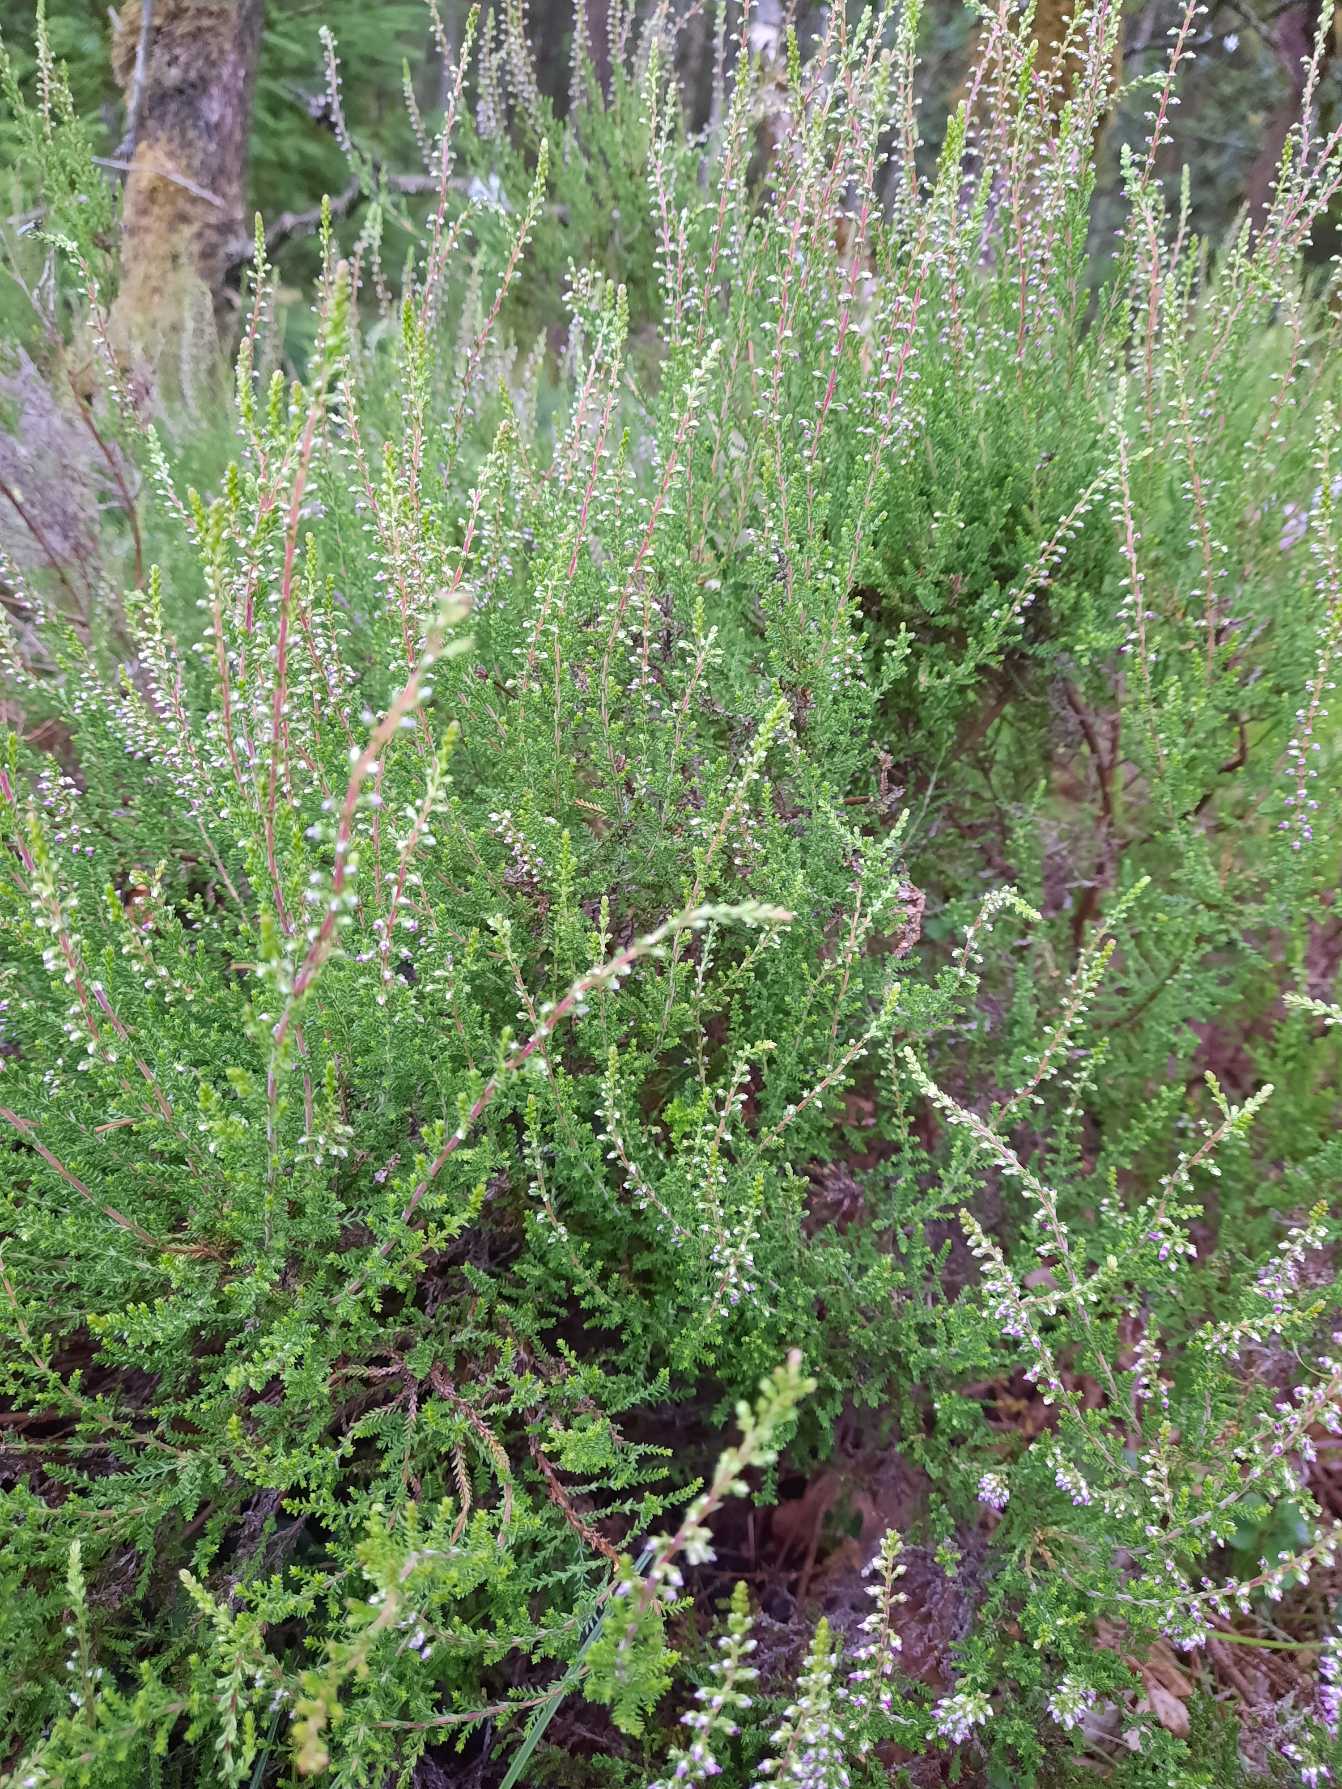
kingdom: Plantae
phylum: Tracheophyta
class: Magnoliopsida
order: Ericales
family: Ericaceae
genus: Calluna
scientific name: Calluna vulgaris
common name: Hedelyng
